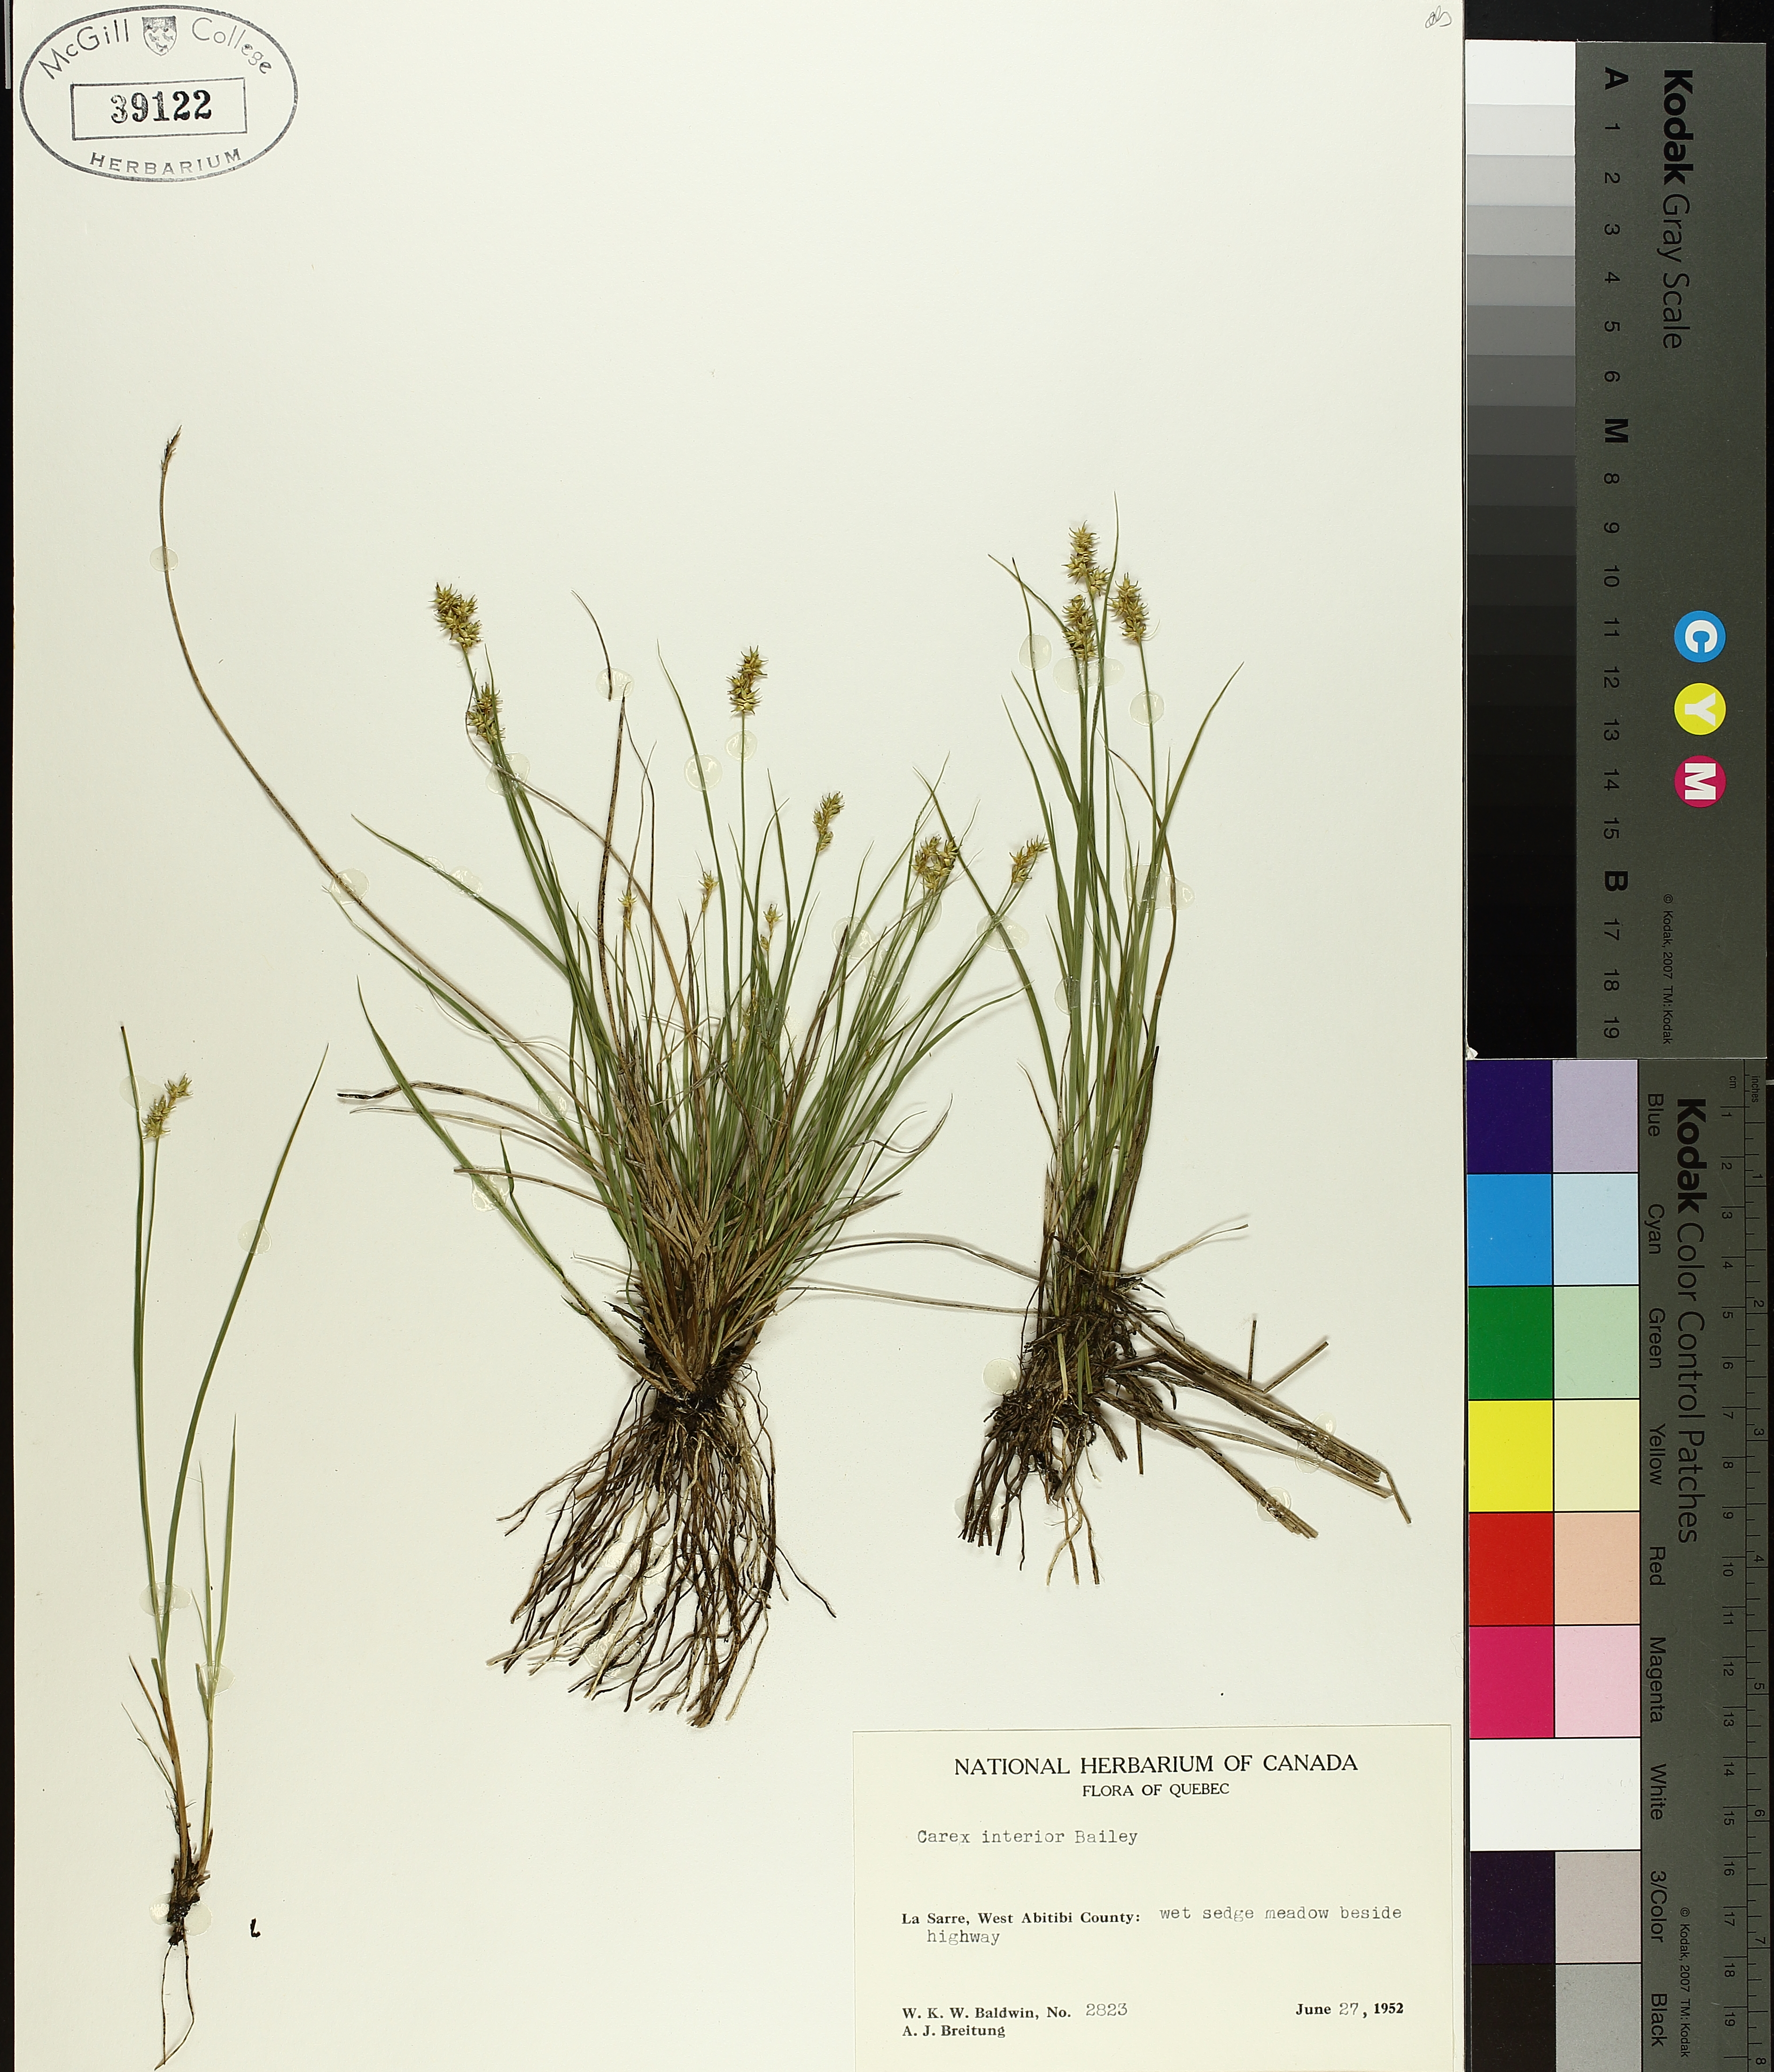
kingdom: Plantae
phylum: Tracheophyta
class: Liliopsida
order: Poales
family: Cyperaceae
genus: Carex
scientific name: Carex interior
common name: Inland sedge
